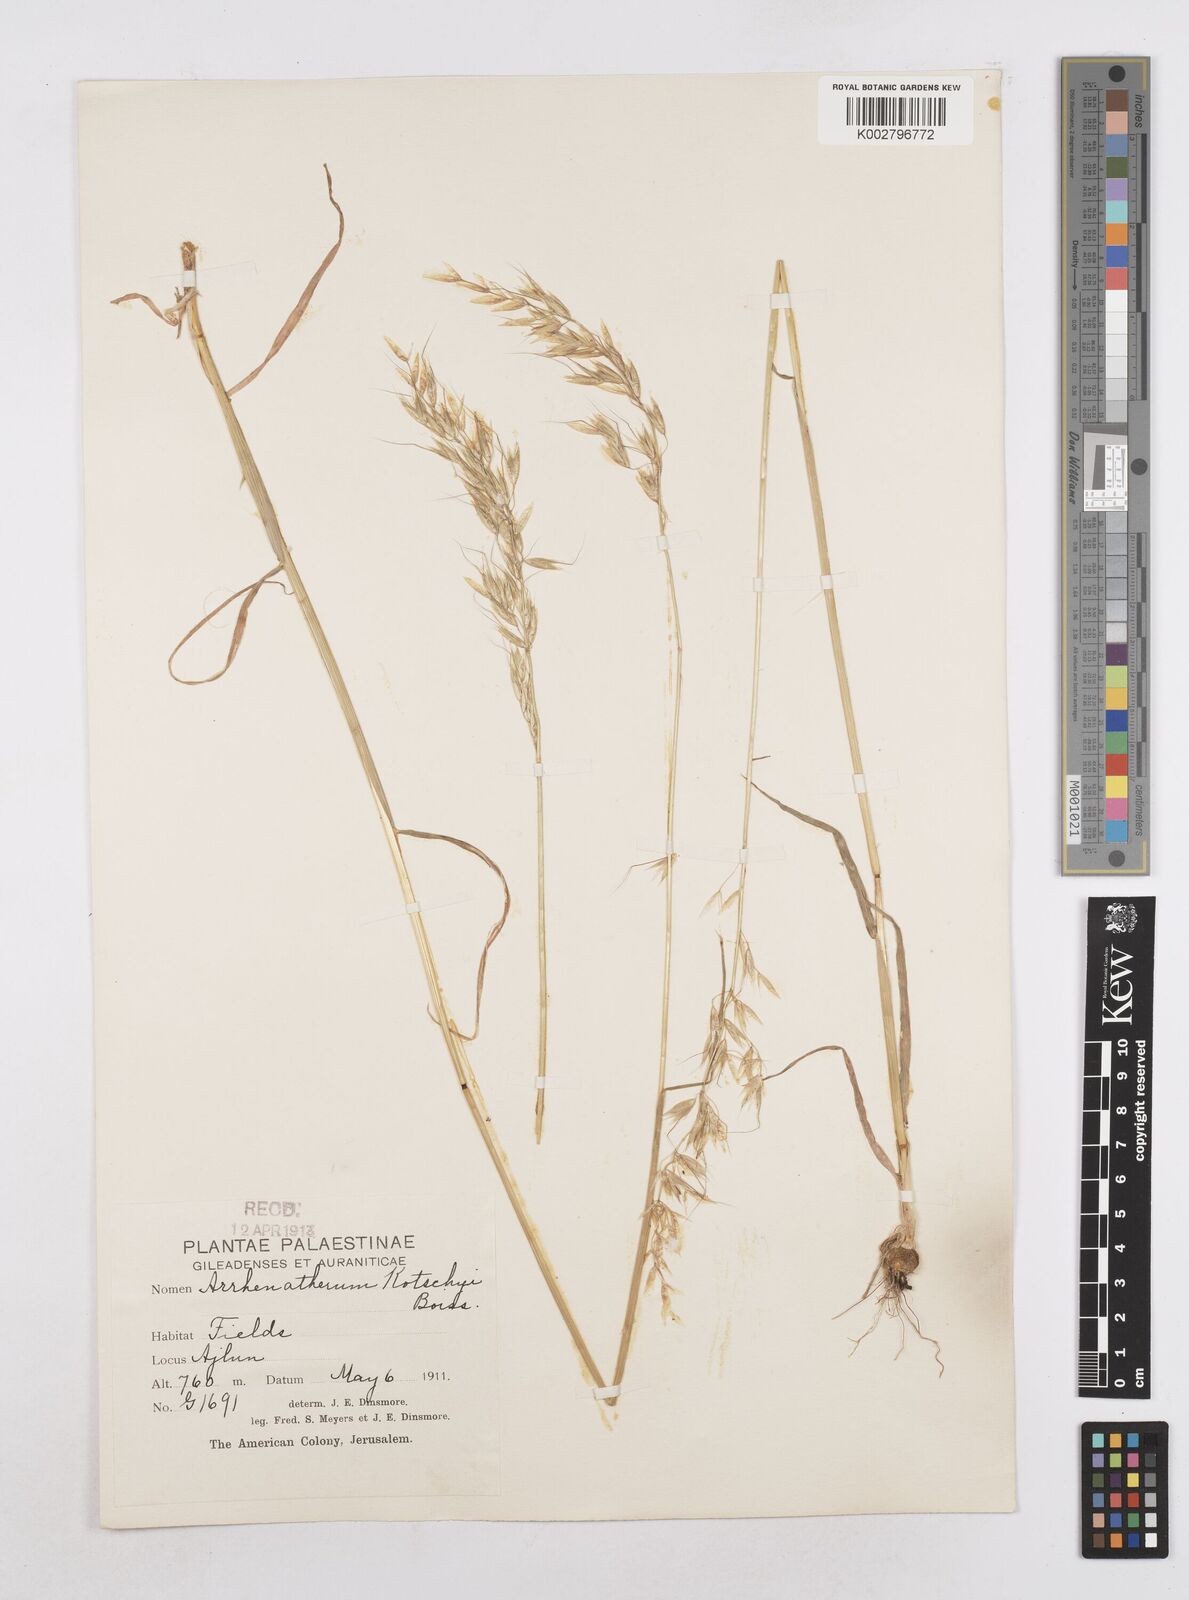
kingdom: Plantae
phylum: Tracheophyta
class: Liliopsida
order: Poales
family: Poaceae
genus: Arrhenatherum
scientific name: Arrhenatherum kotschyi
